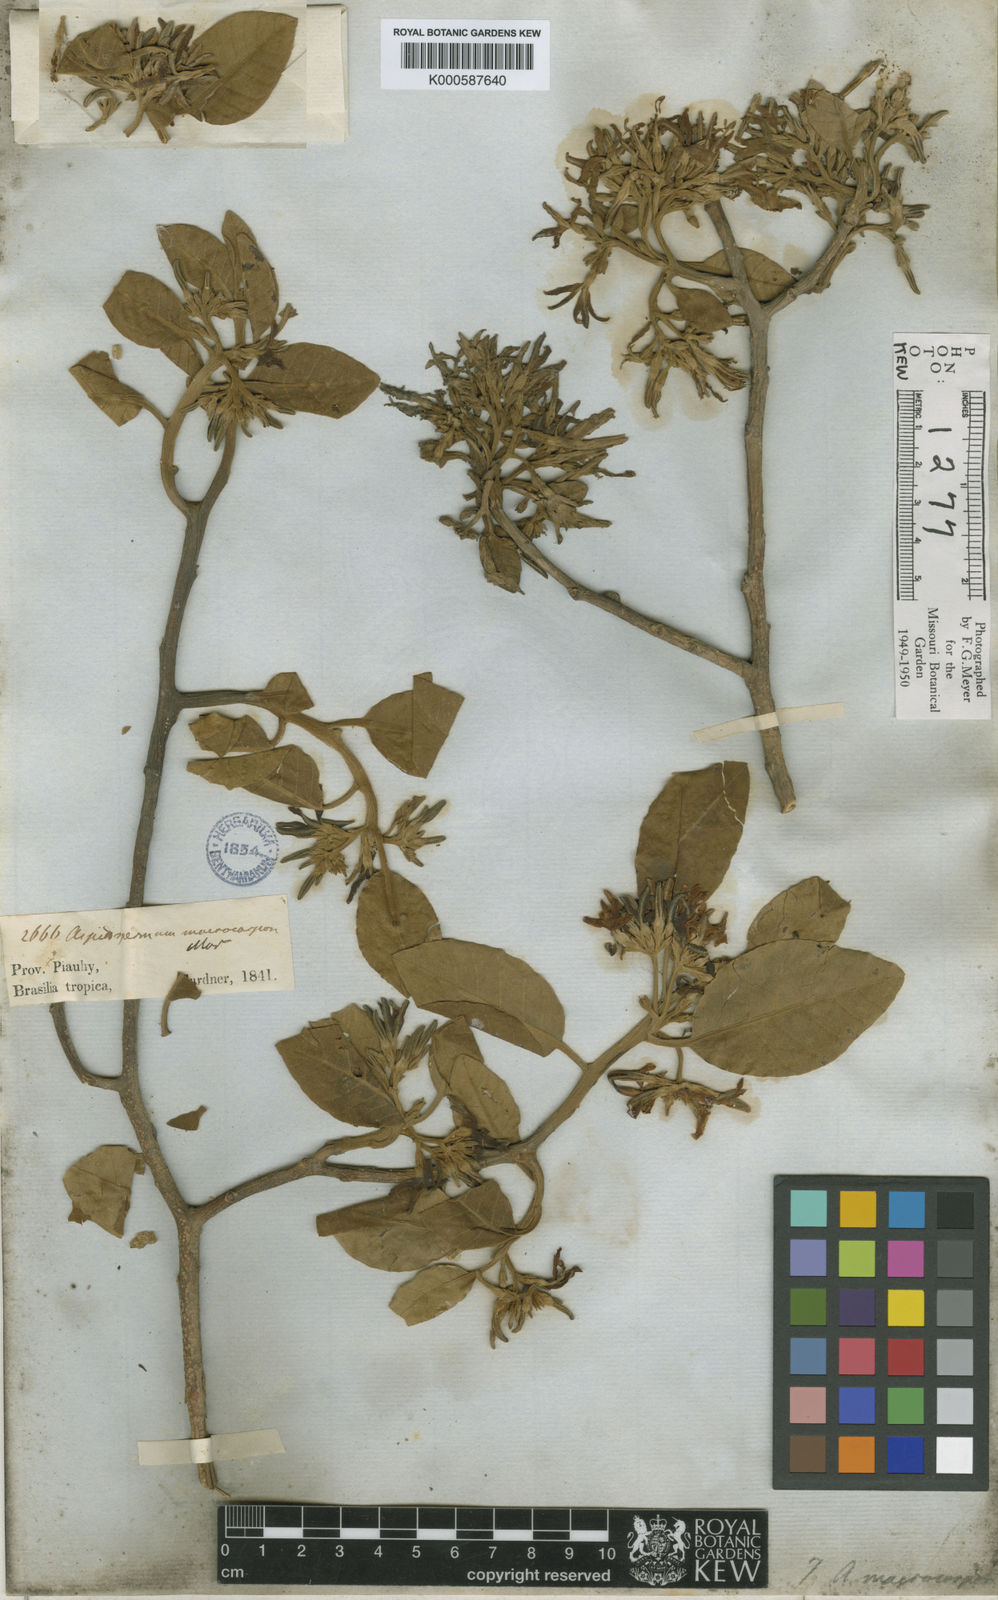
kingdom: Plantae
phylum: Tracheophyta
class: Magnoliopsida
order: Gentianales
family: Apocynaceae
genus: Aspidosperma
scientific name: Aspidosperma macrocarpon
